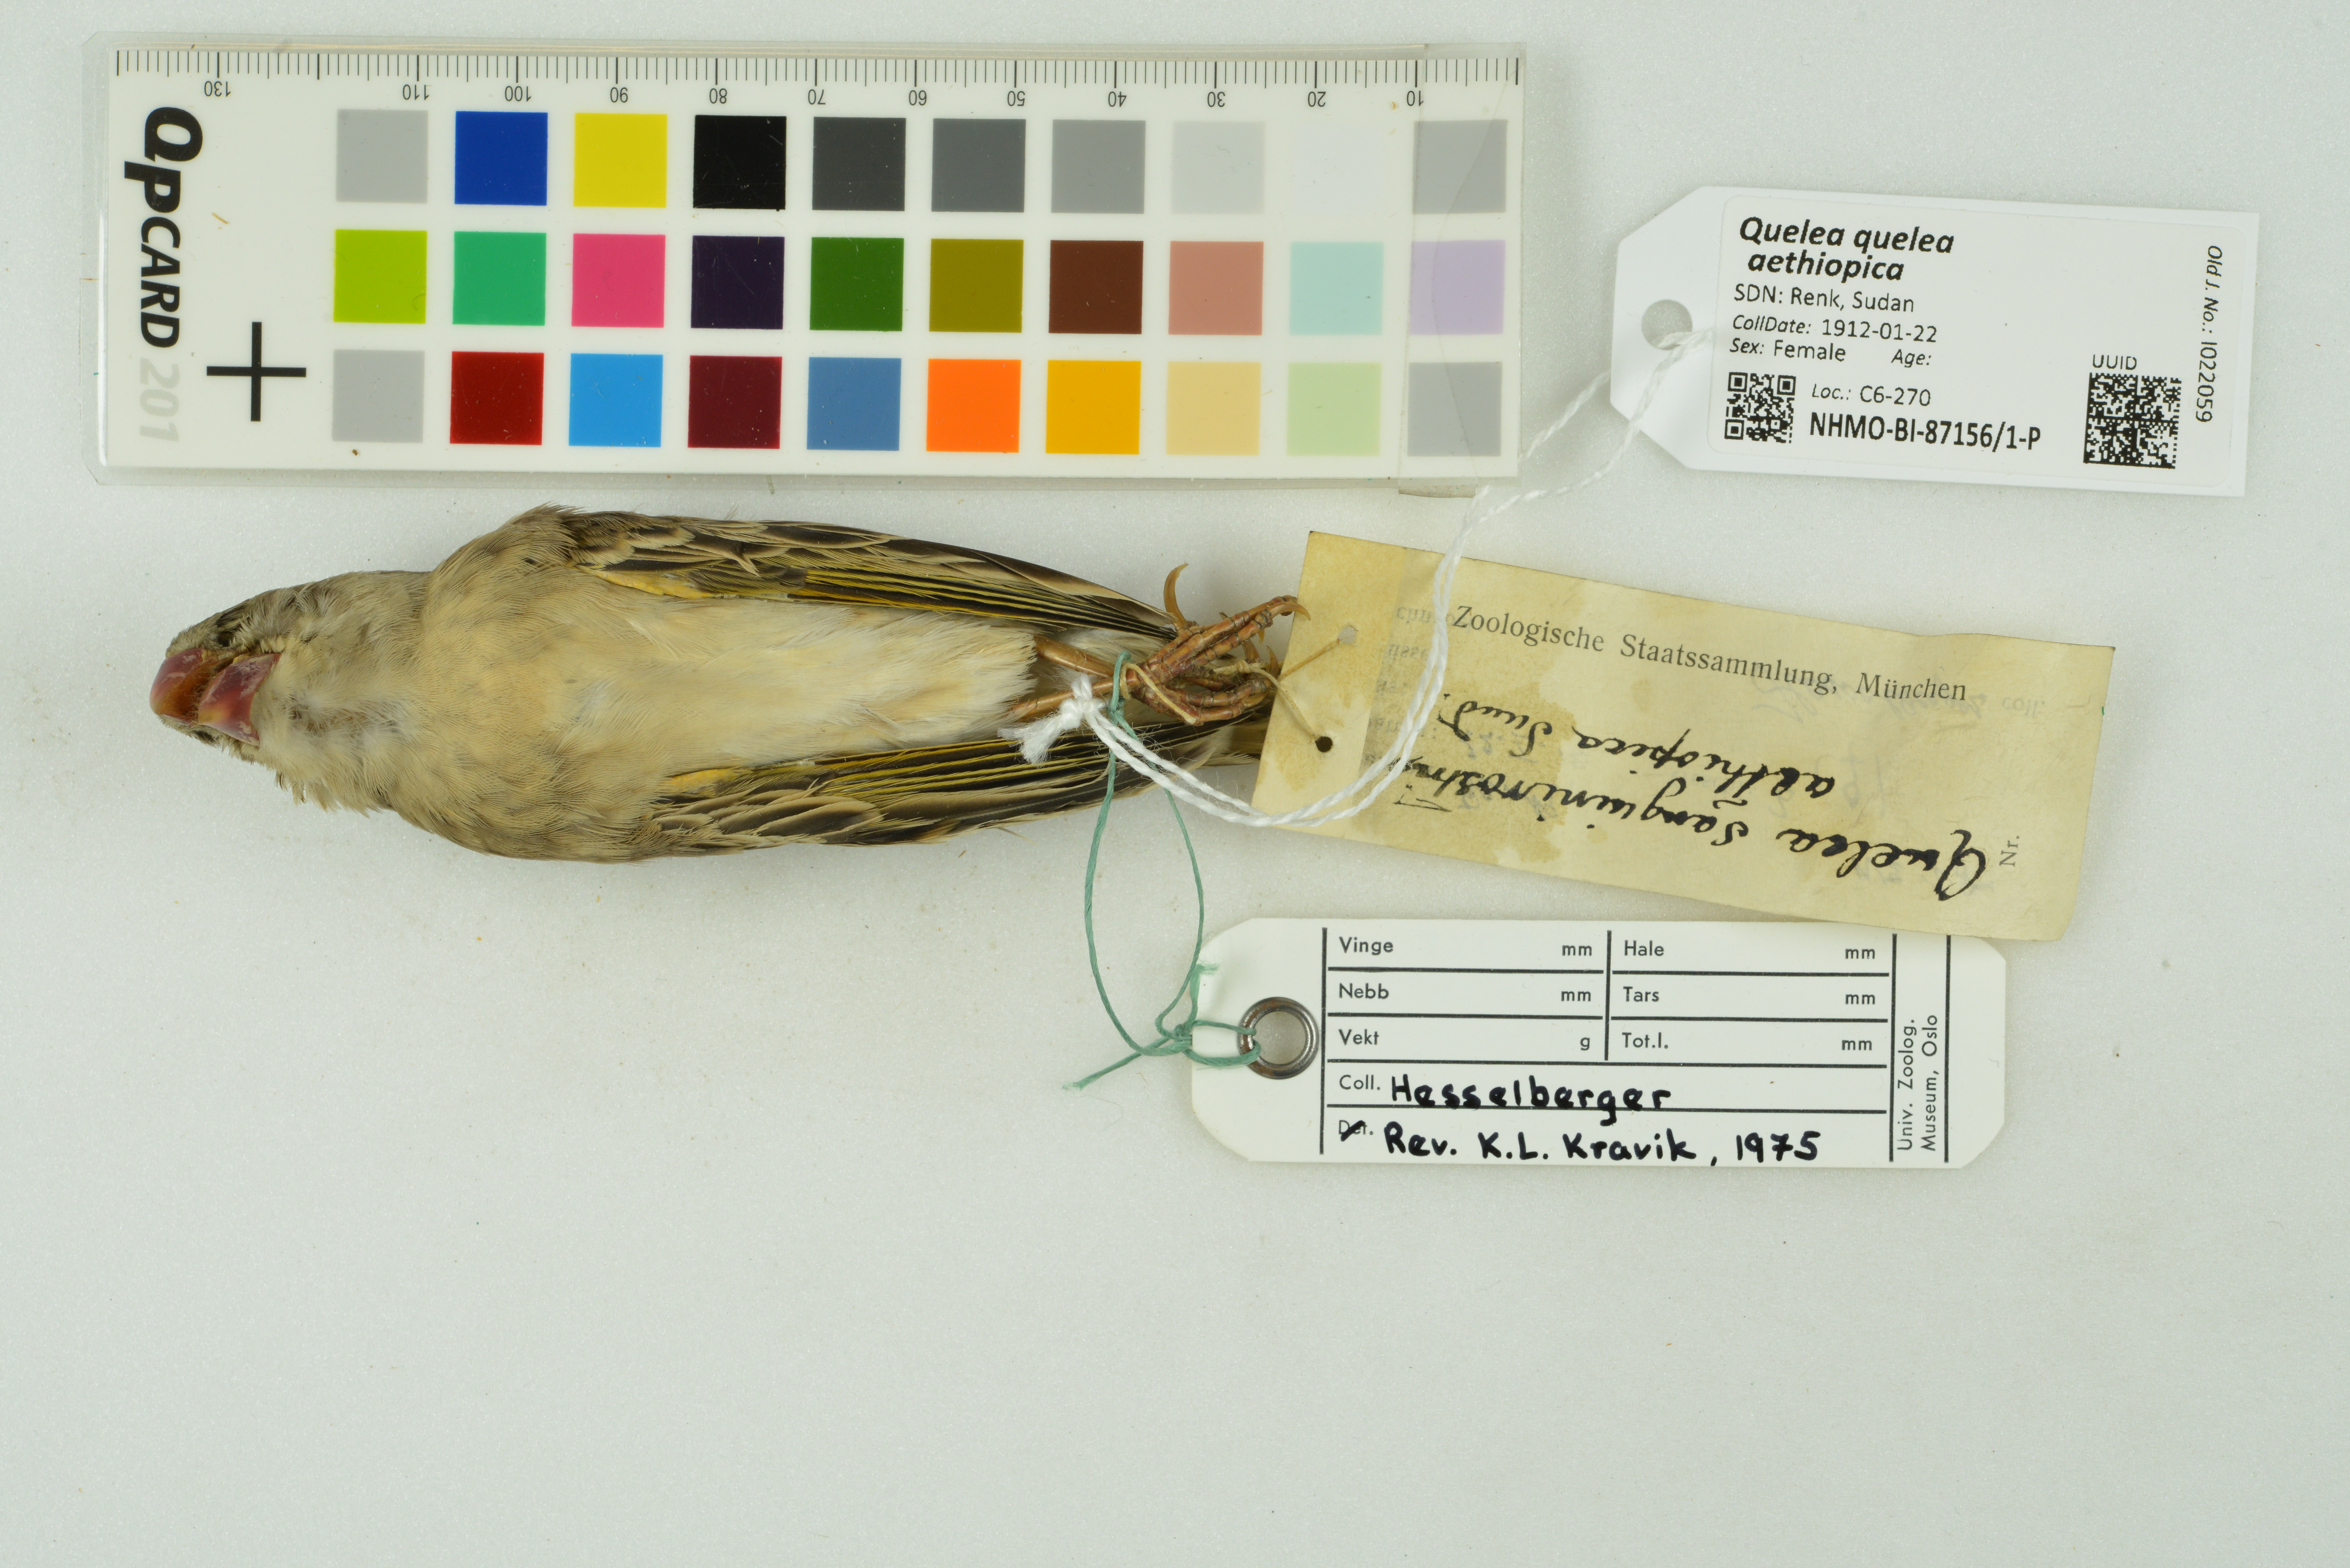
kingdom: Animalia
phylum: Chordata
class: Aves
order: Passeriformes
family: Ploceidae
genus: Quelea
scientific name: Quelea quelea
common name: Red-billed quelea
